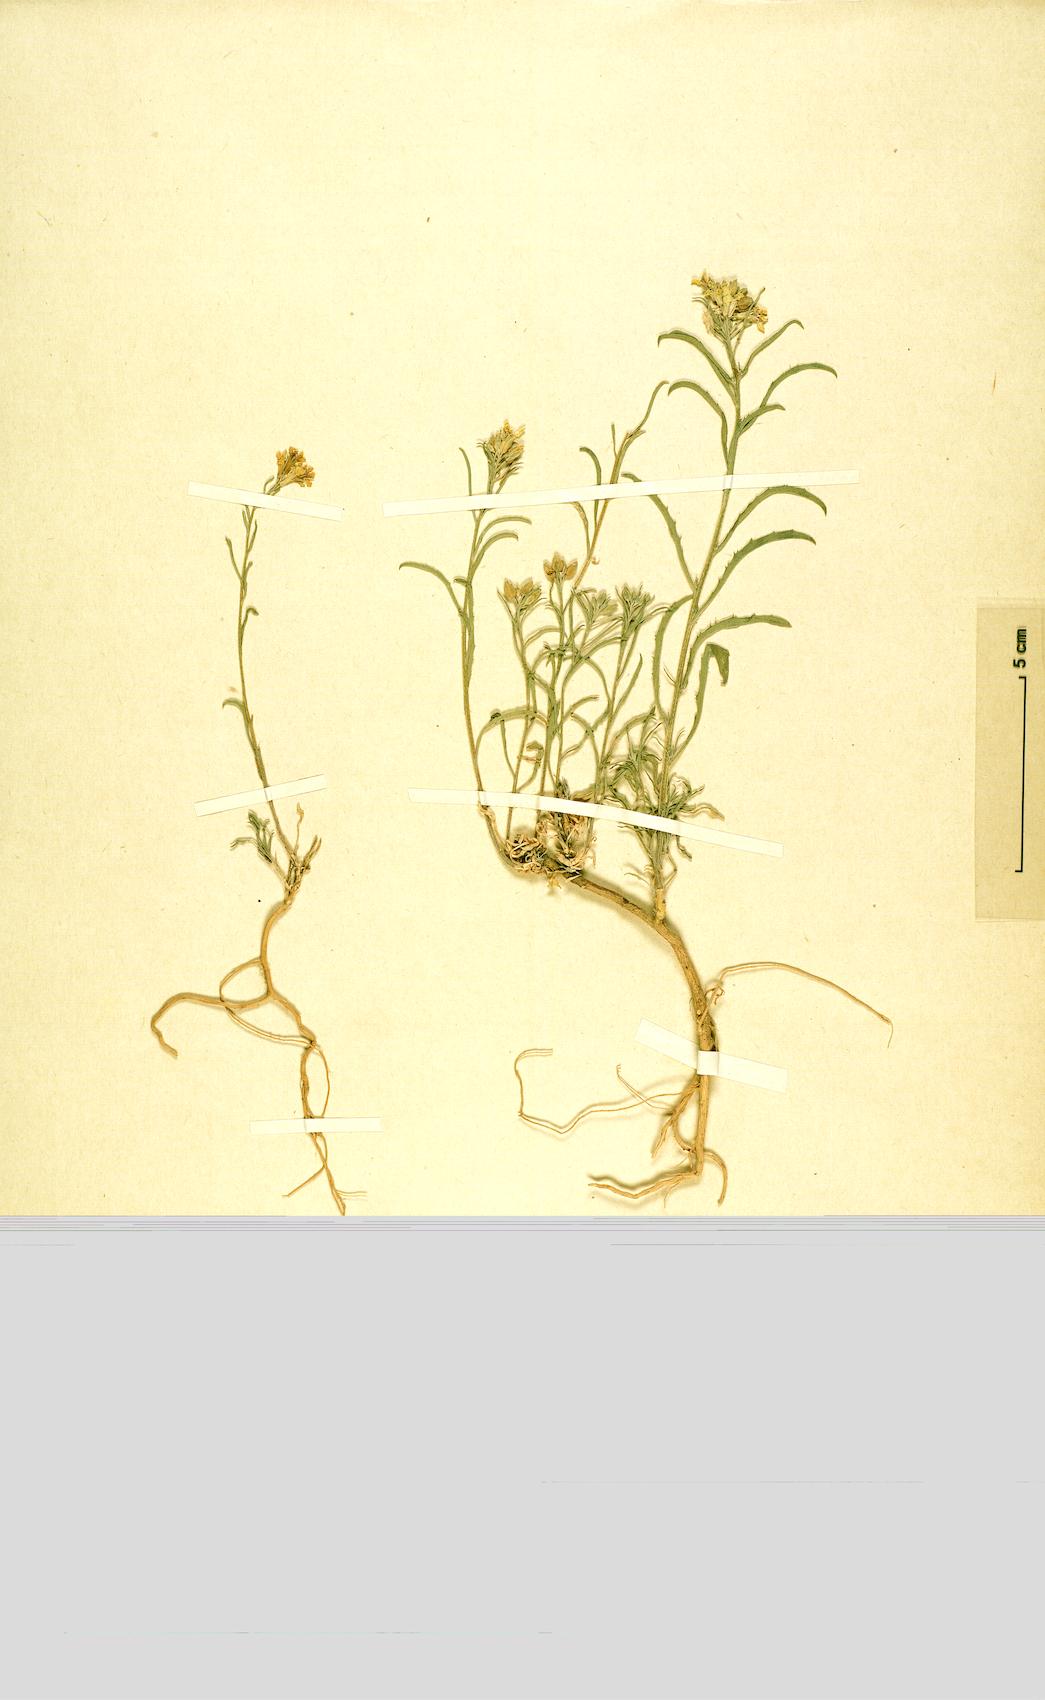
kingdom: Plantae
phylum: Tracheophyta
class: Magnoliopsida
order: Brassicales
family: Brassicaceae
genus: Erysimum
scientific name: Erysimum leptophyllum
